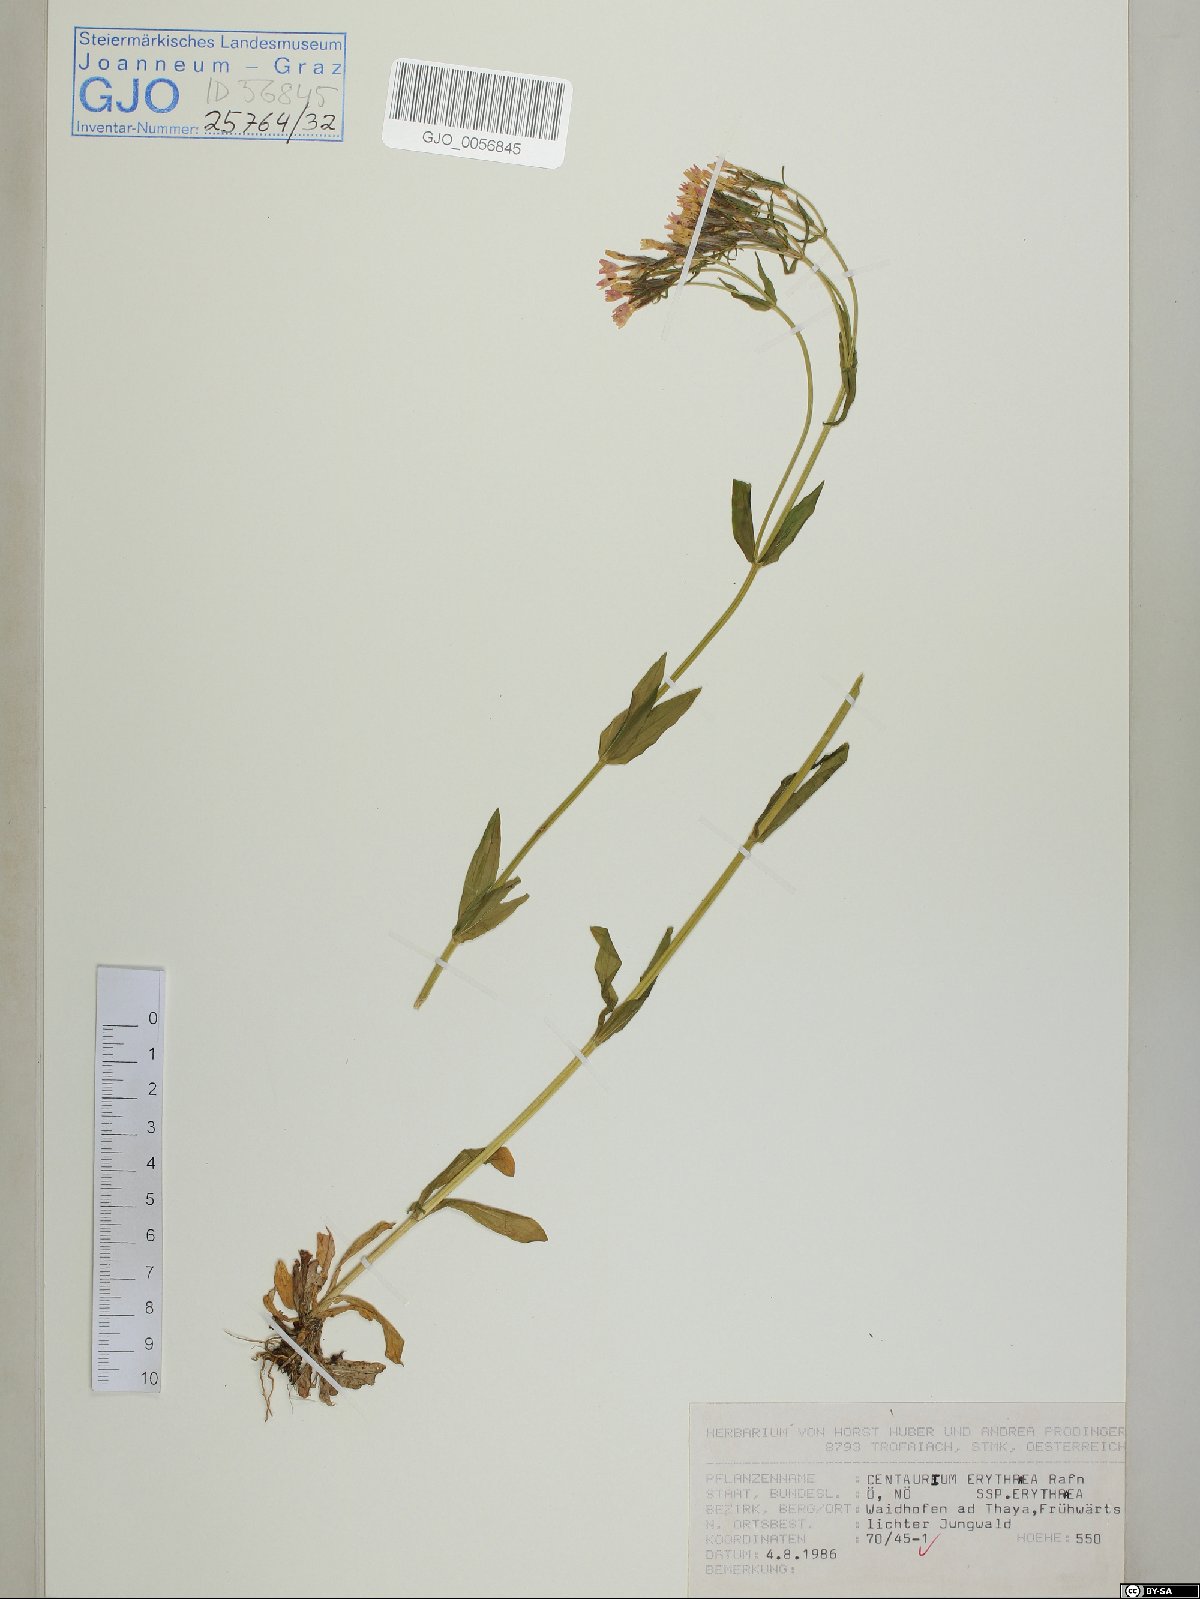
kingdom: Plantae
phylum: Tracheophyta
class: Magnoliopsida
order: Gentianales
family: Gentianaceae
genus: Centaurium
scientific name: Centaurium erythraea
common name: Common centaury
